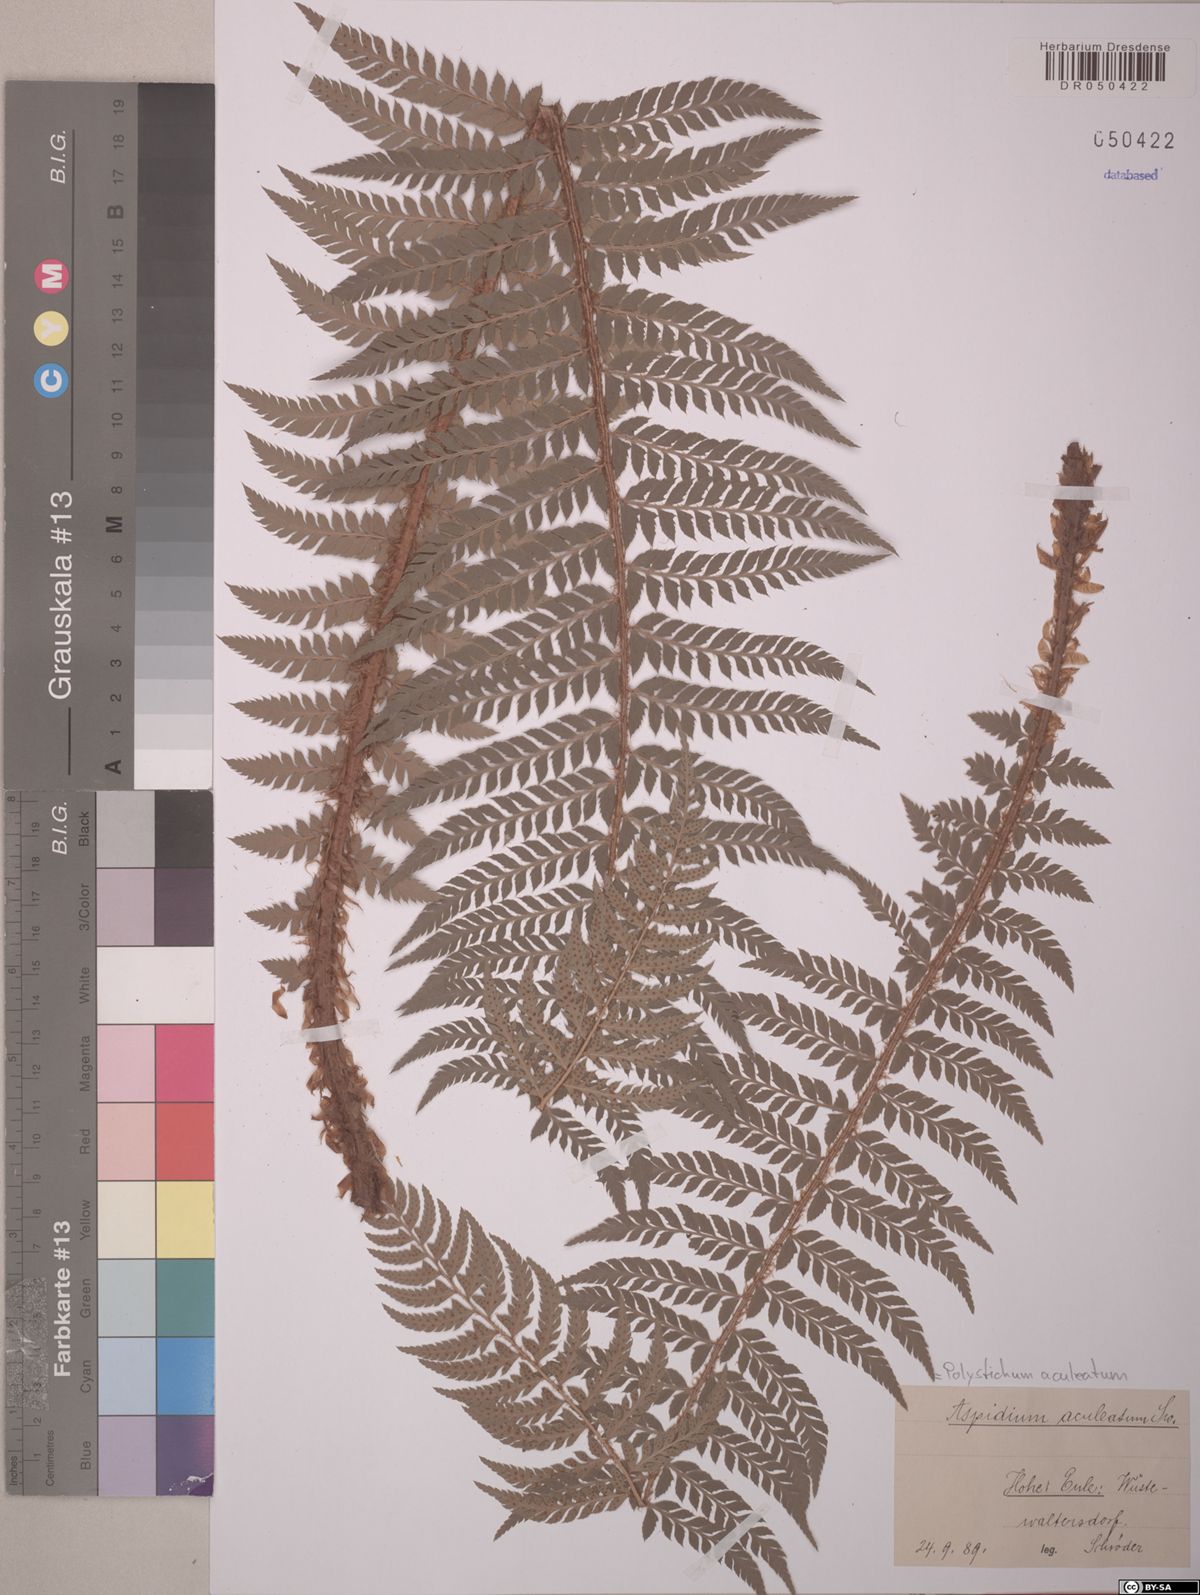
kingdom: Plantae
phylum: Tracheophyta
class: Polypodiopsida
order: Polypodiales
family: Dryopteridaceae
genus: Polystichum
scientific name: Polystichum aculeatum
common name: Hard shield-fern
